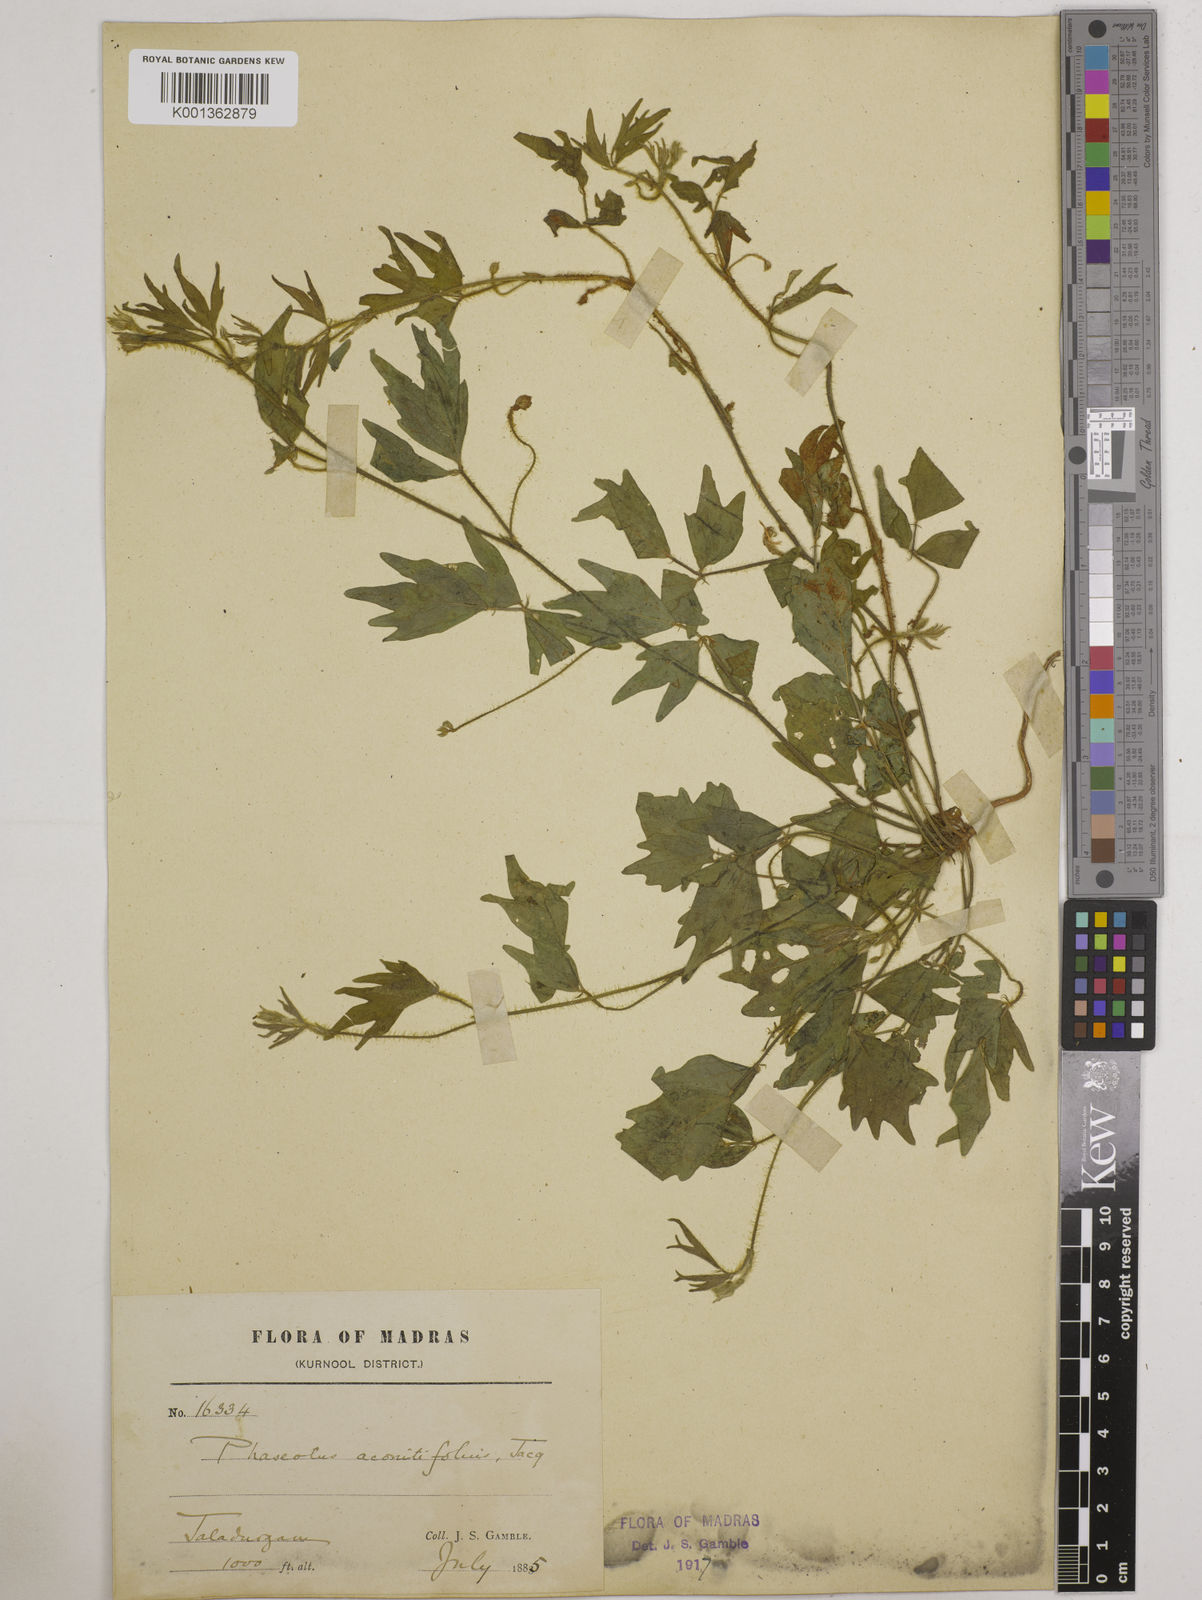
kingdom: Plantae
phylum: Tracheophyta
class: Magnoliopsida
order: Fabales
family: Fabaceae
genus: Vigna
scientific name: Vigna aconitifolia
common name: Dew bean
